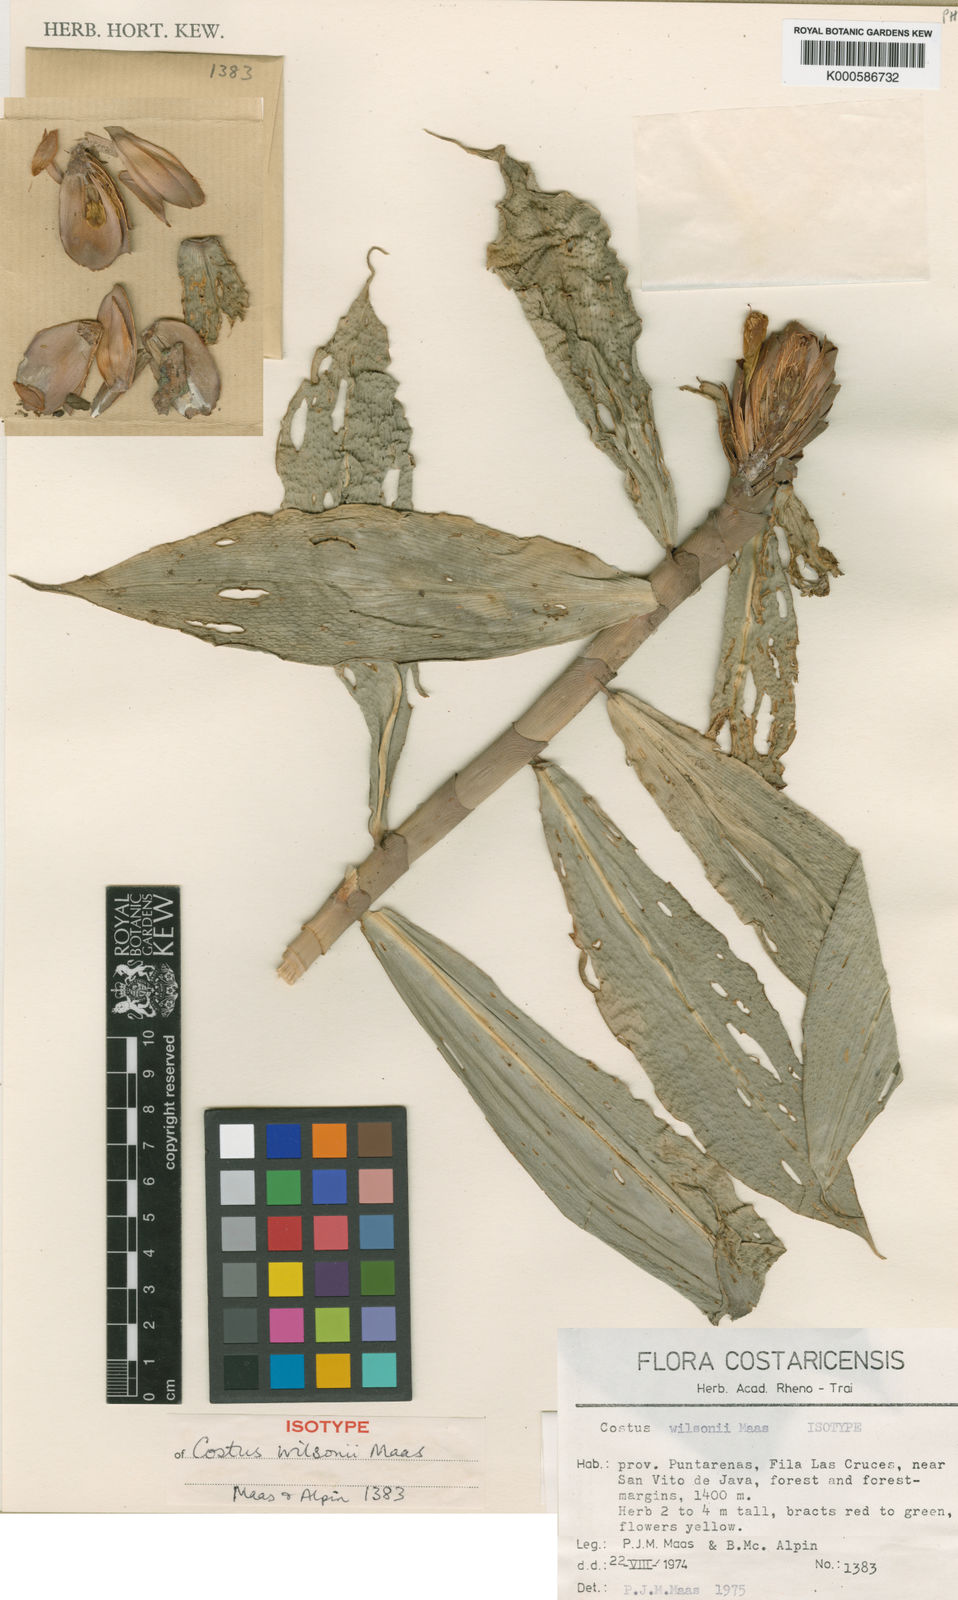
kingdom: Plantae
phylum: Tracheophyta
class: Liliopsida
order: Zingiberales
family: Costaceae
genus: Costus
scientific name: Costus wilsonii
